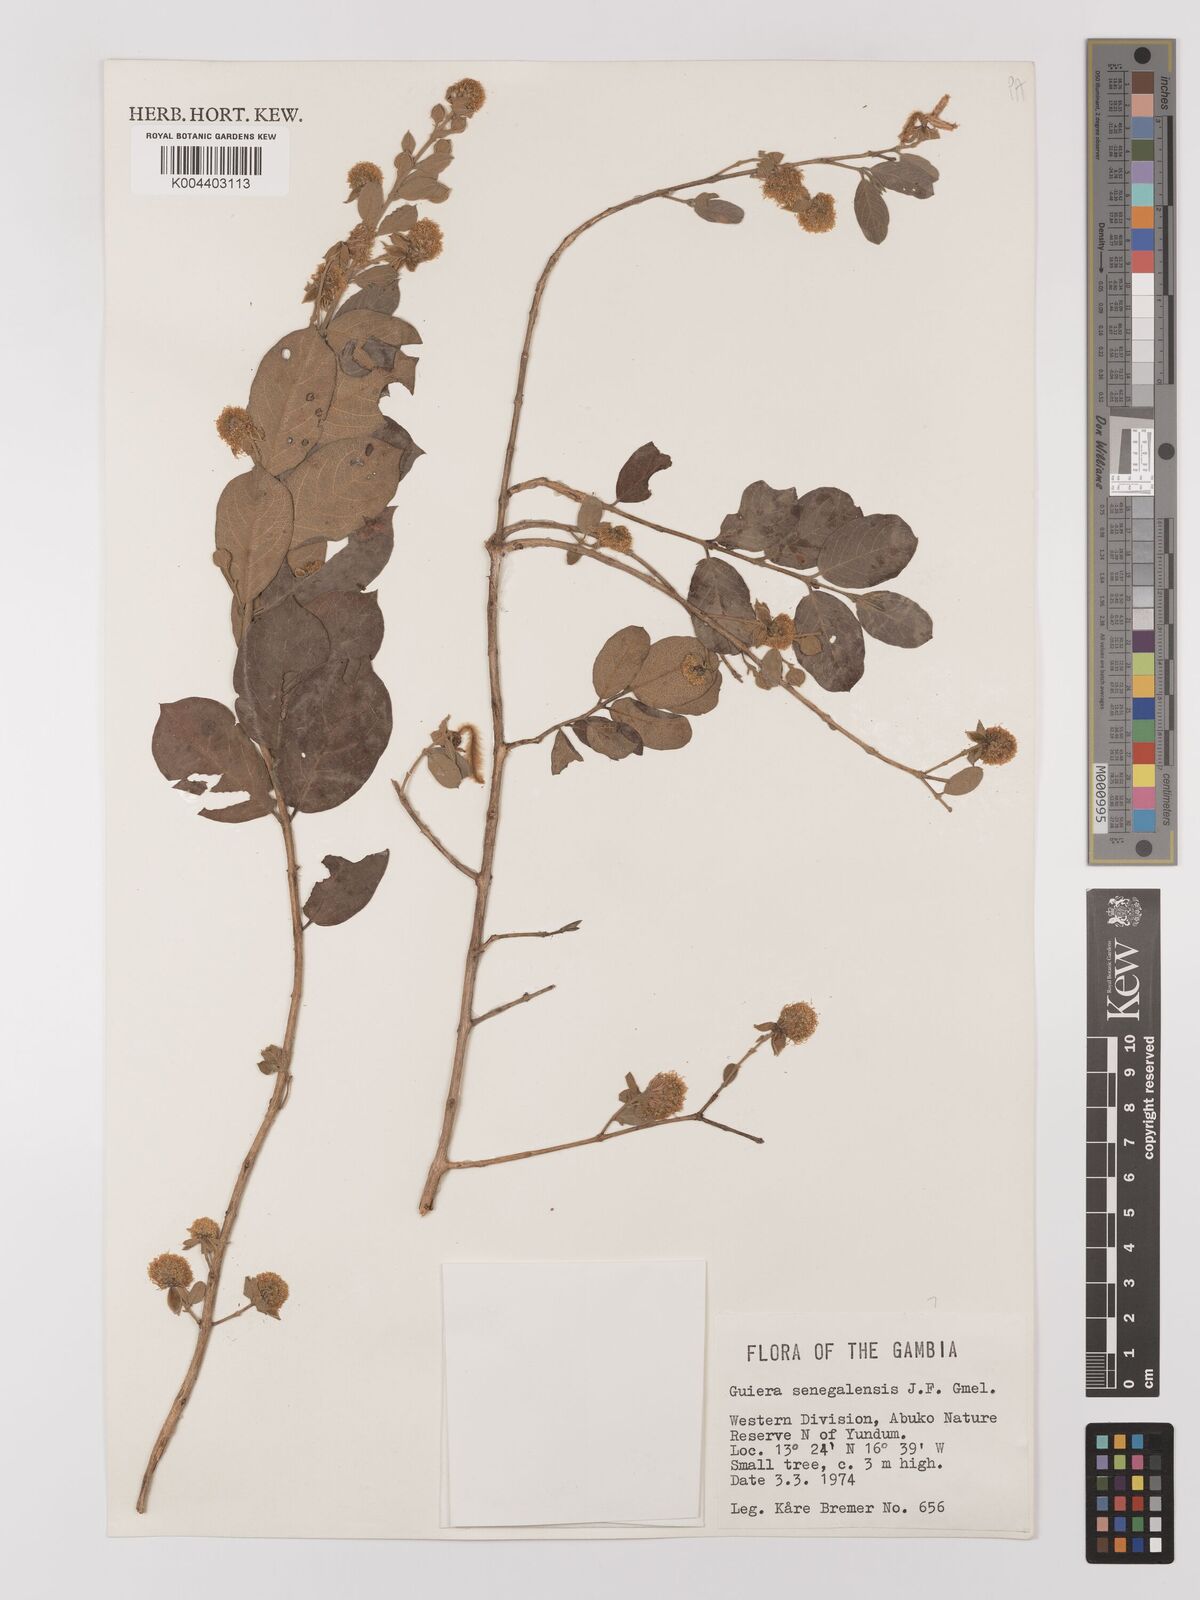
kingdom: Plantae
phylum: Tracheophyta
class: Magnoliopsida
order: Myrtales
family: Combretaceae
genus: Guiera
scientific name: Guiera senegalensis
